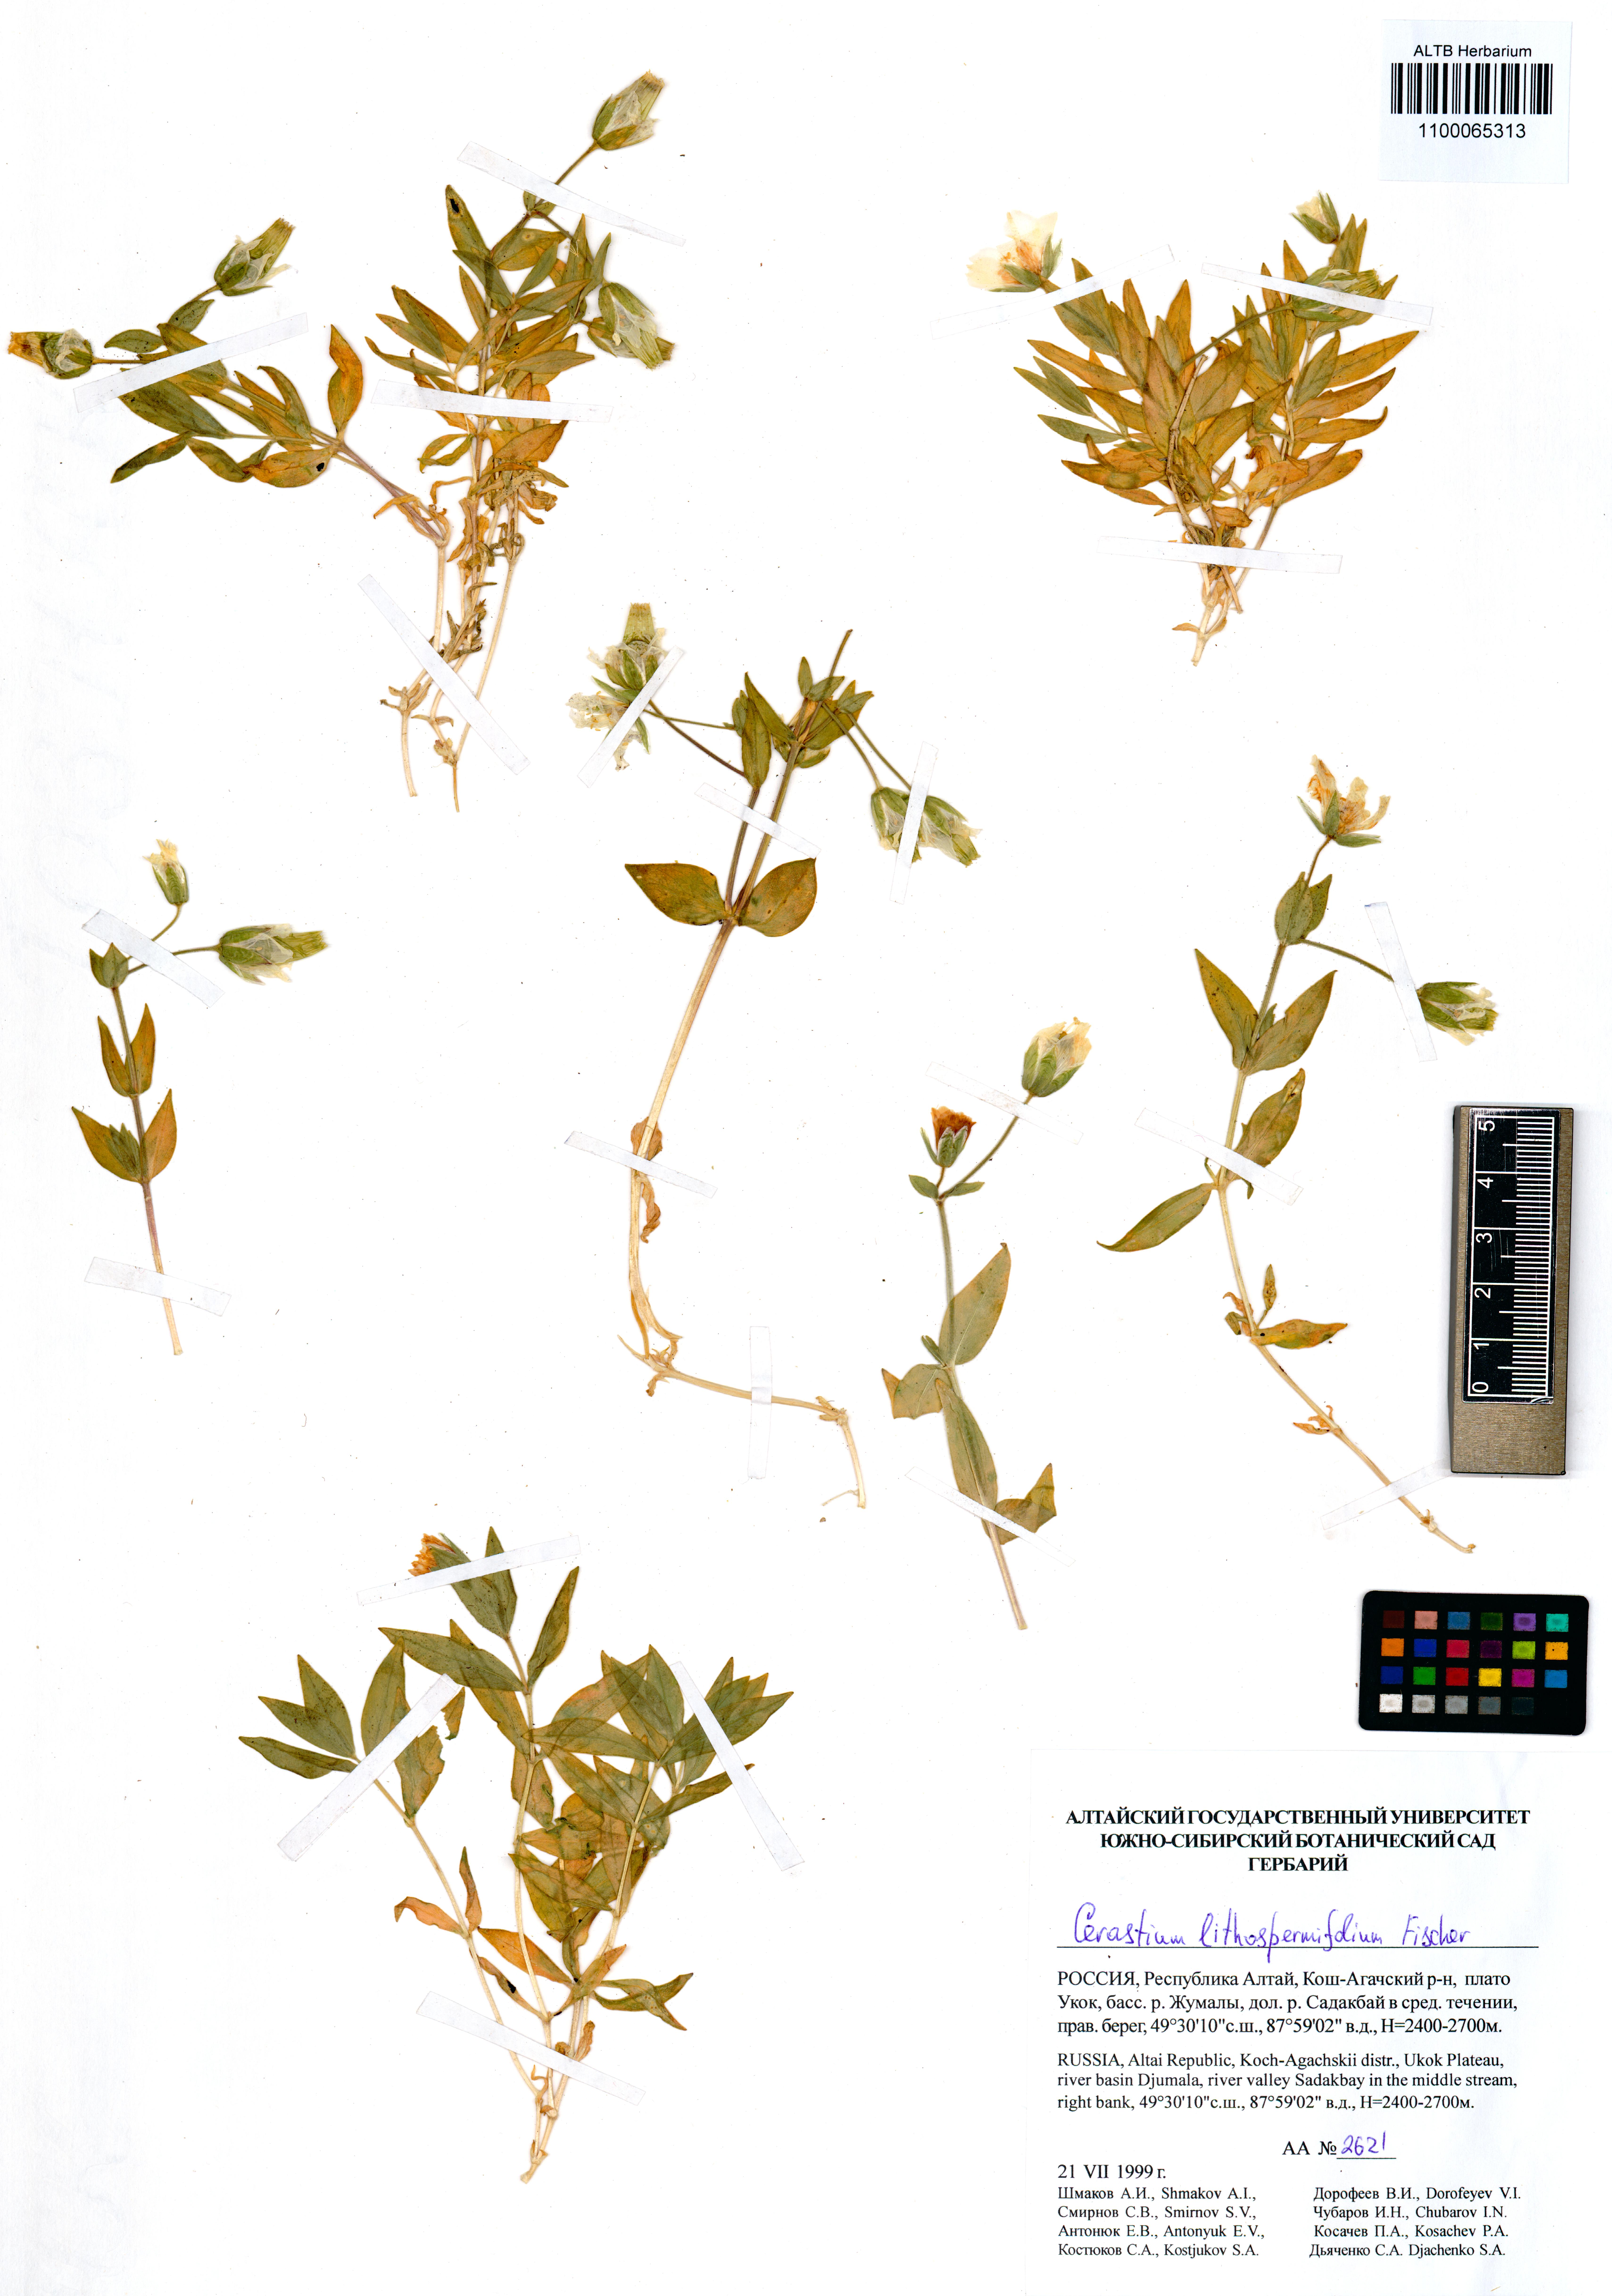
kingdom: Plantae
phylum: Tracheophyta
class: Magnoliopsida
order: Caryophyllales
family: Caryophyllaceae
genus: Cerastium
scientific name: Cerastium lithospermifolium
